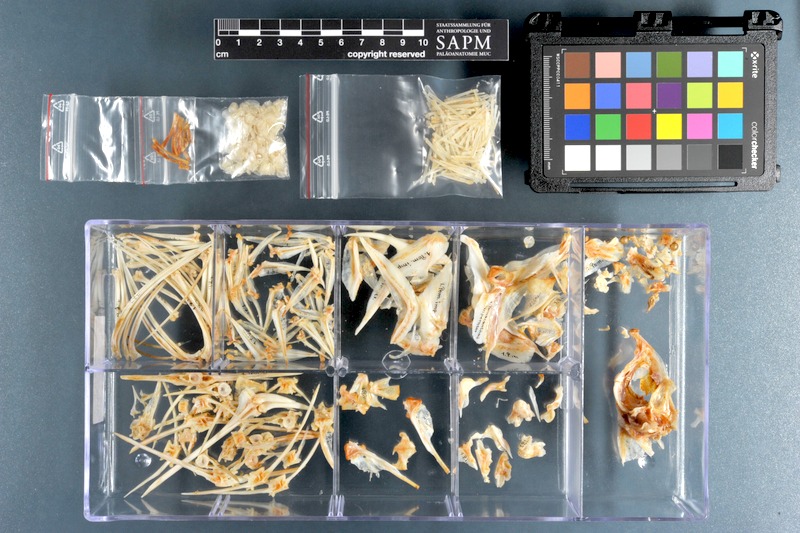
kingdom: Animalia
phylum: Chordata
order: Perciformes
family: Pomacanthidae
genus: Pomacanthus
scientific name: Pomacanthus imperator
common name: Emperor angelfish
